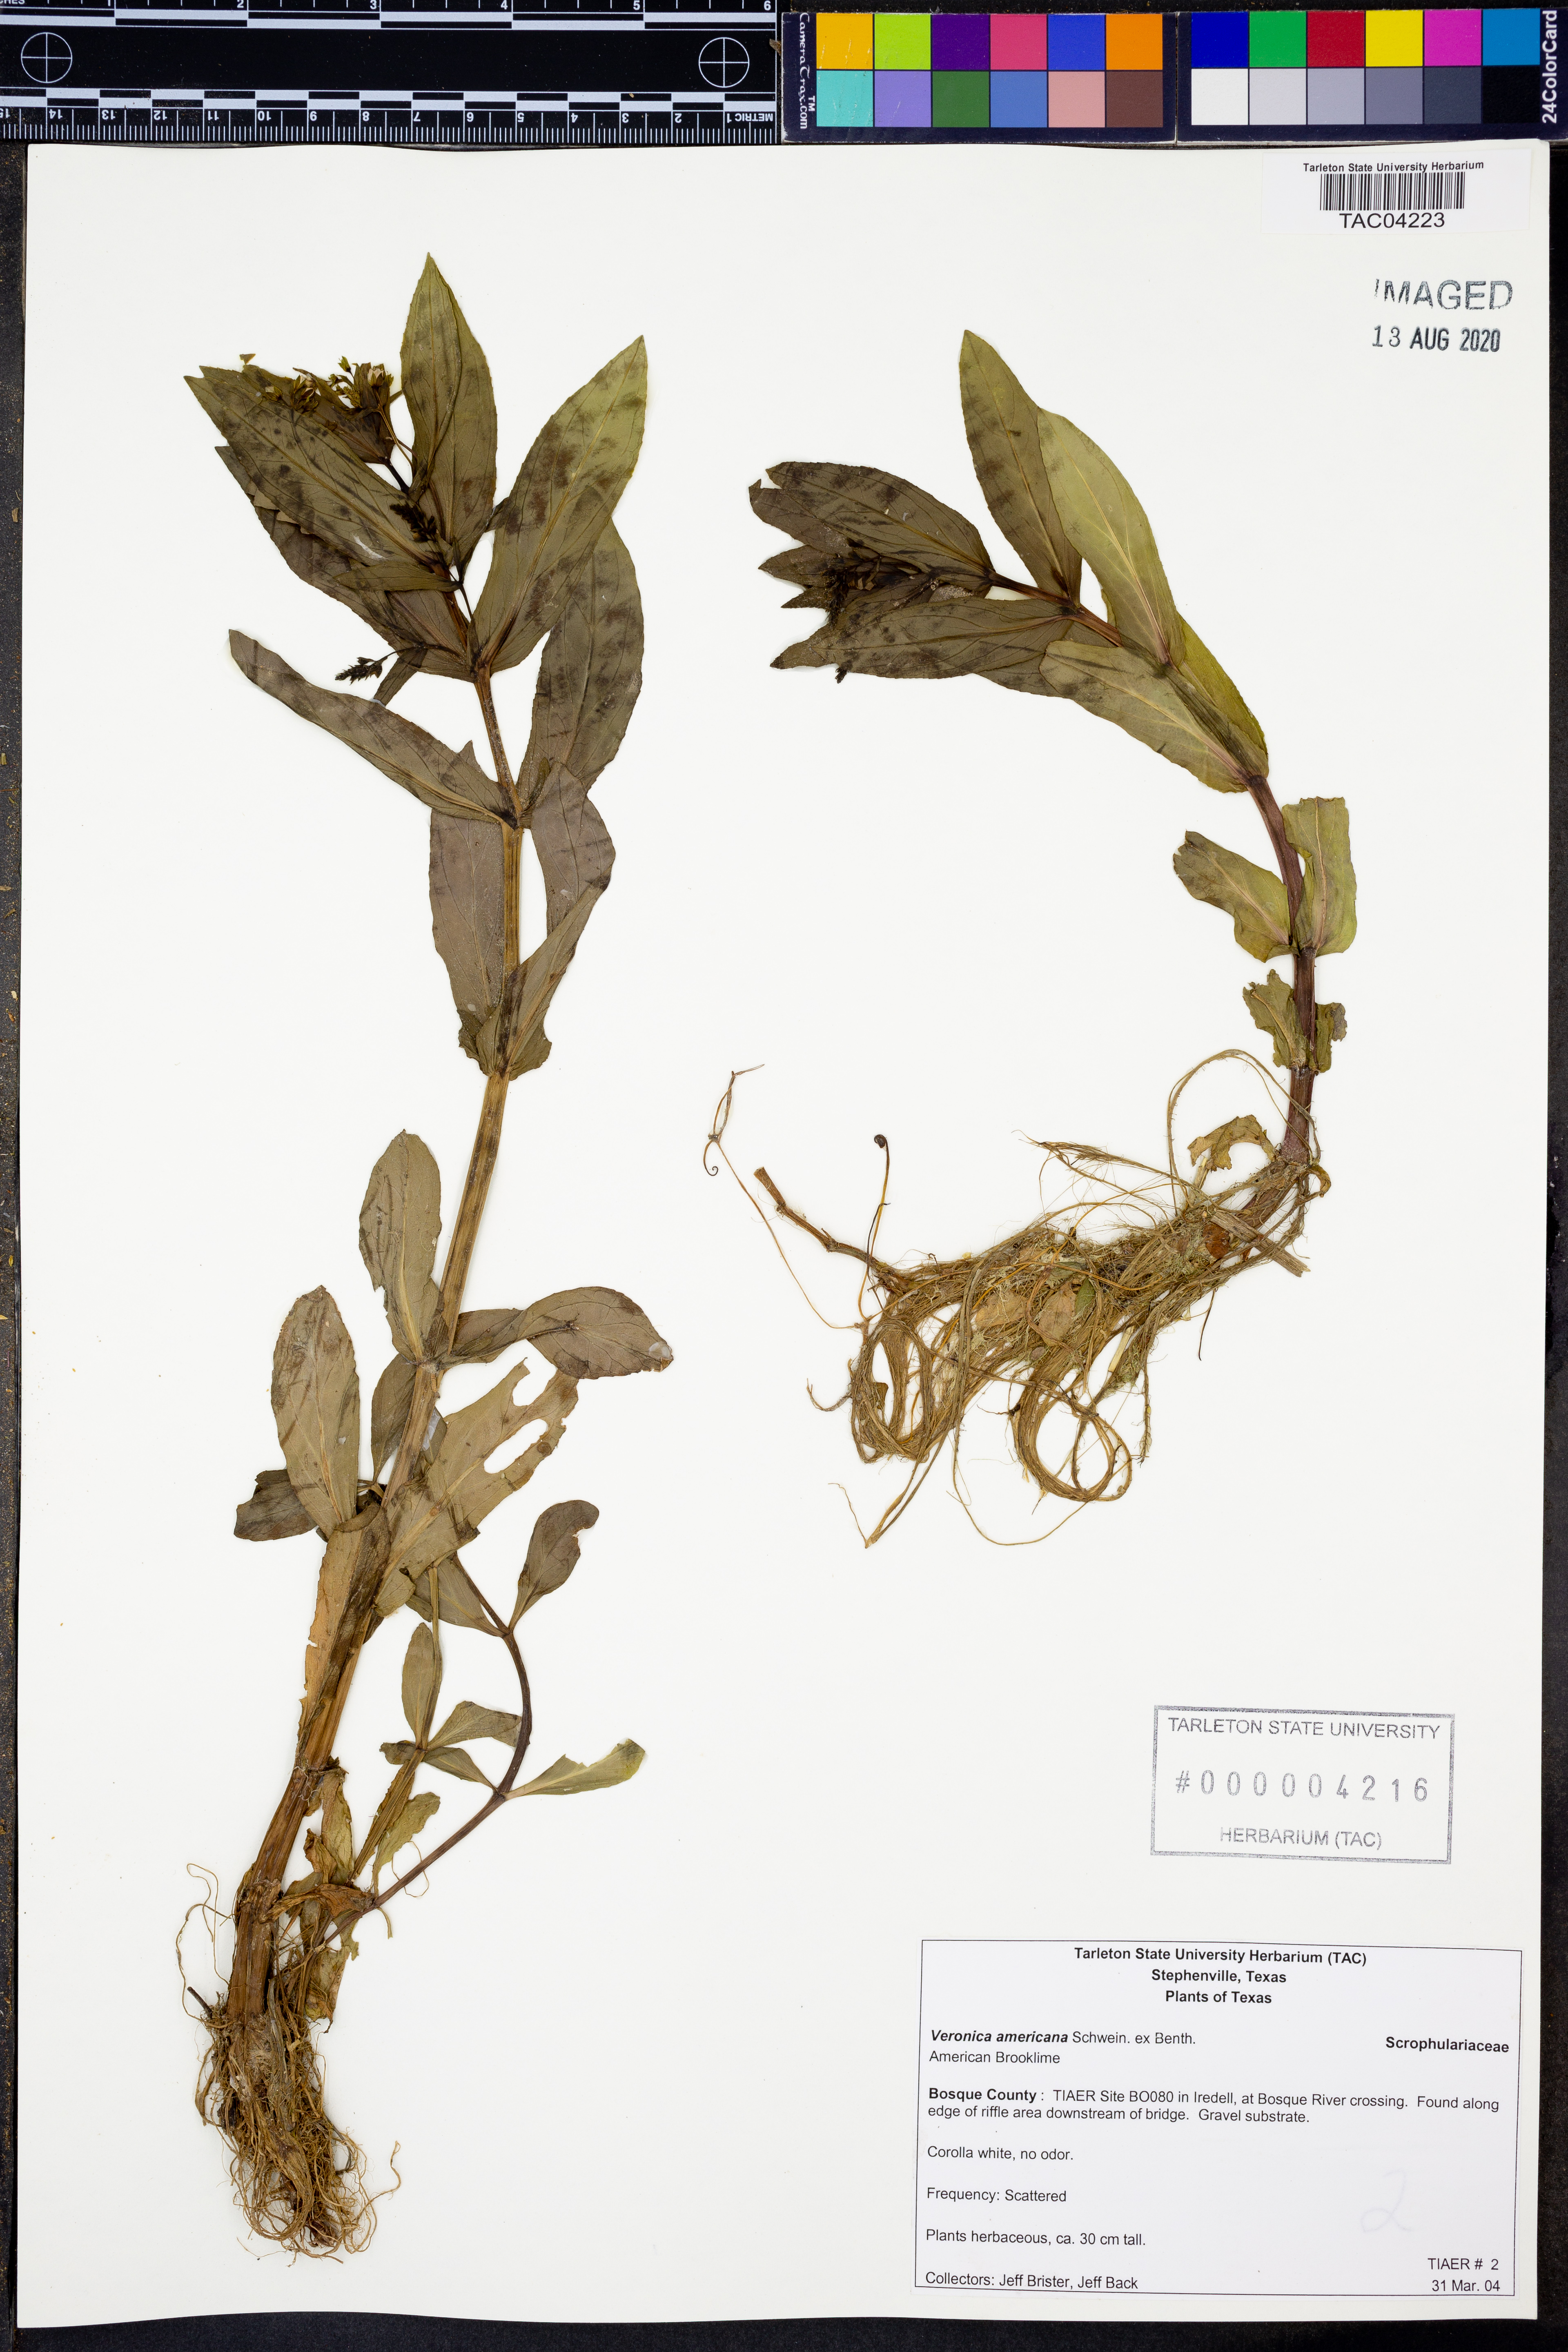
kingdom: Plantae
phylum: Tracheophyta
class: Magnoliopsida
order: Lamiales
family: Plantaginaceae
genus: Veronica
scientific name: Veronica americana
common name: American brooklime
